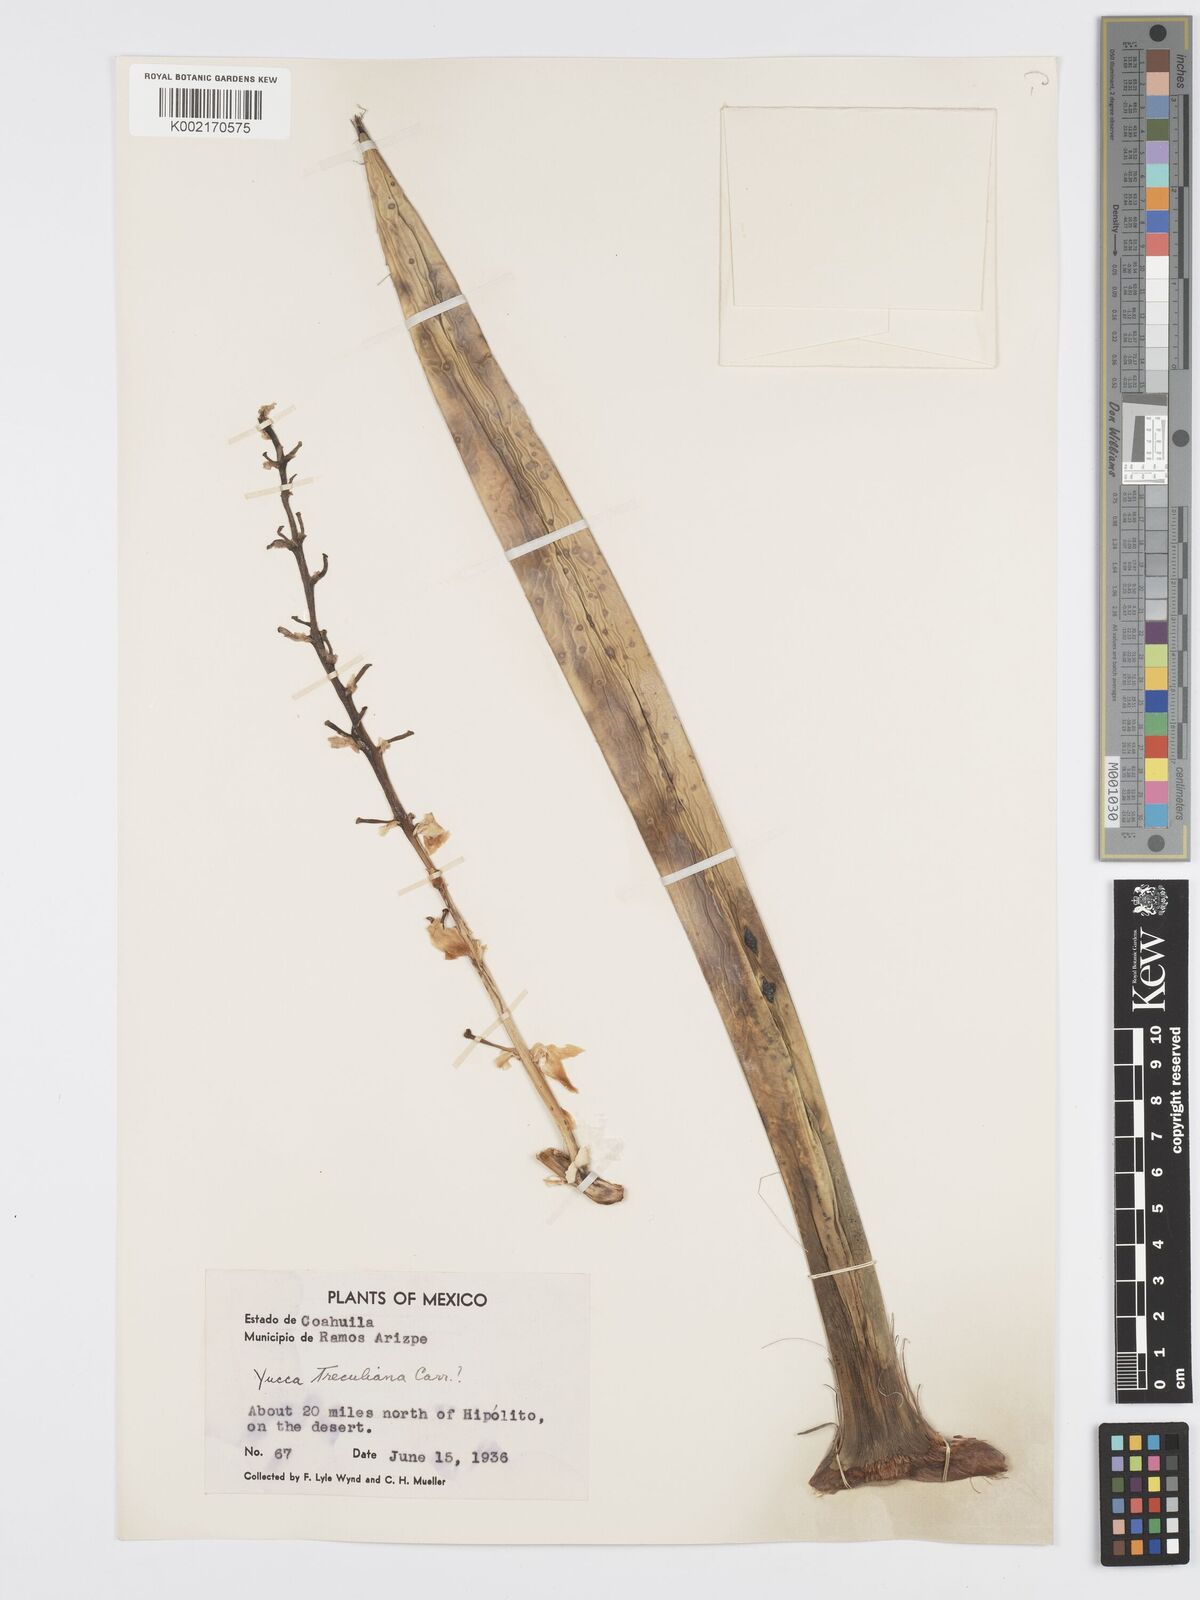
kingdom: Plantae
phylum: Tracheophyta
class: Liliopsida
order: Asparagales
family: Asparagaceae
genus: Yucca
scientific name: Yucca treculeana
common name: Spanish bayonet
